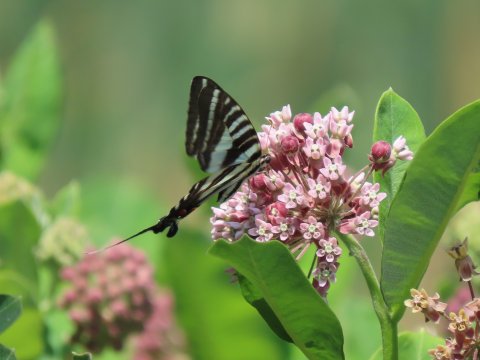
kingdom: Animalia
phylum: Arthropoda
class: Insecta
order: Lepidoptera
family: Papilionidae
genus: Protographium
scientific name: Protographium marcellus
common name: Zebra Swallowtail
